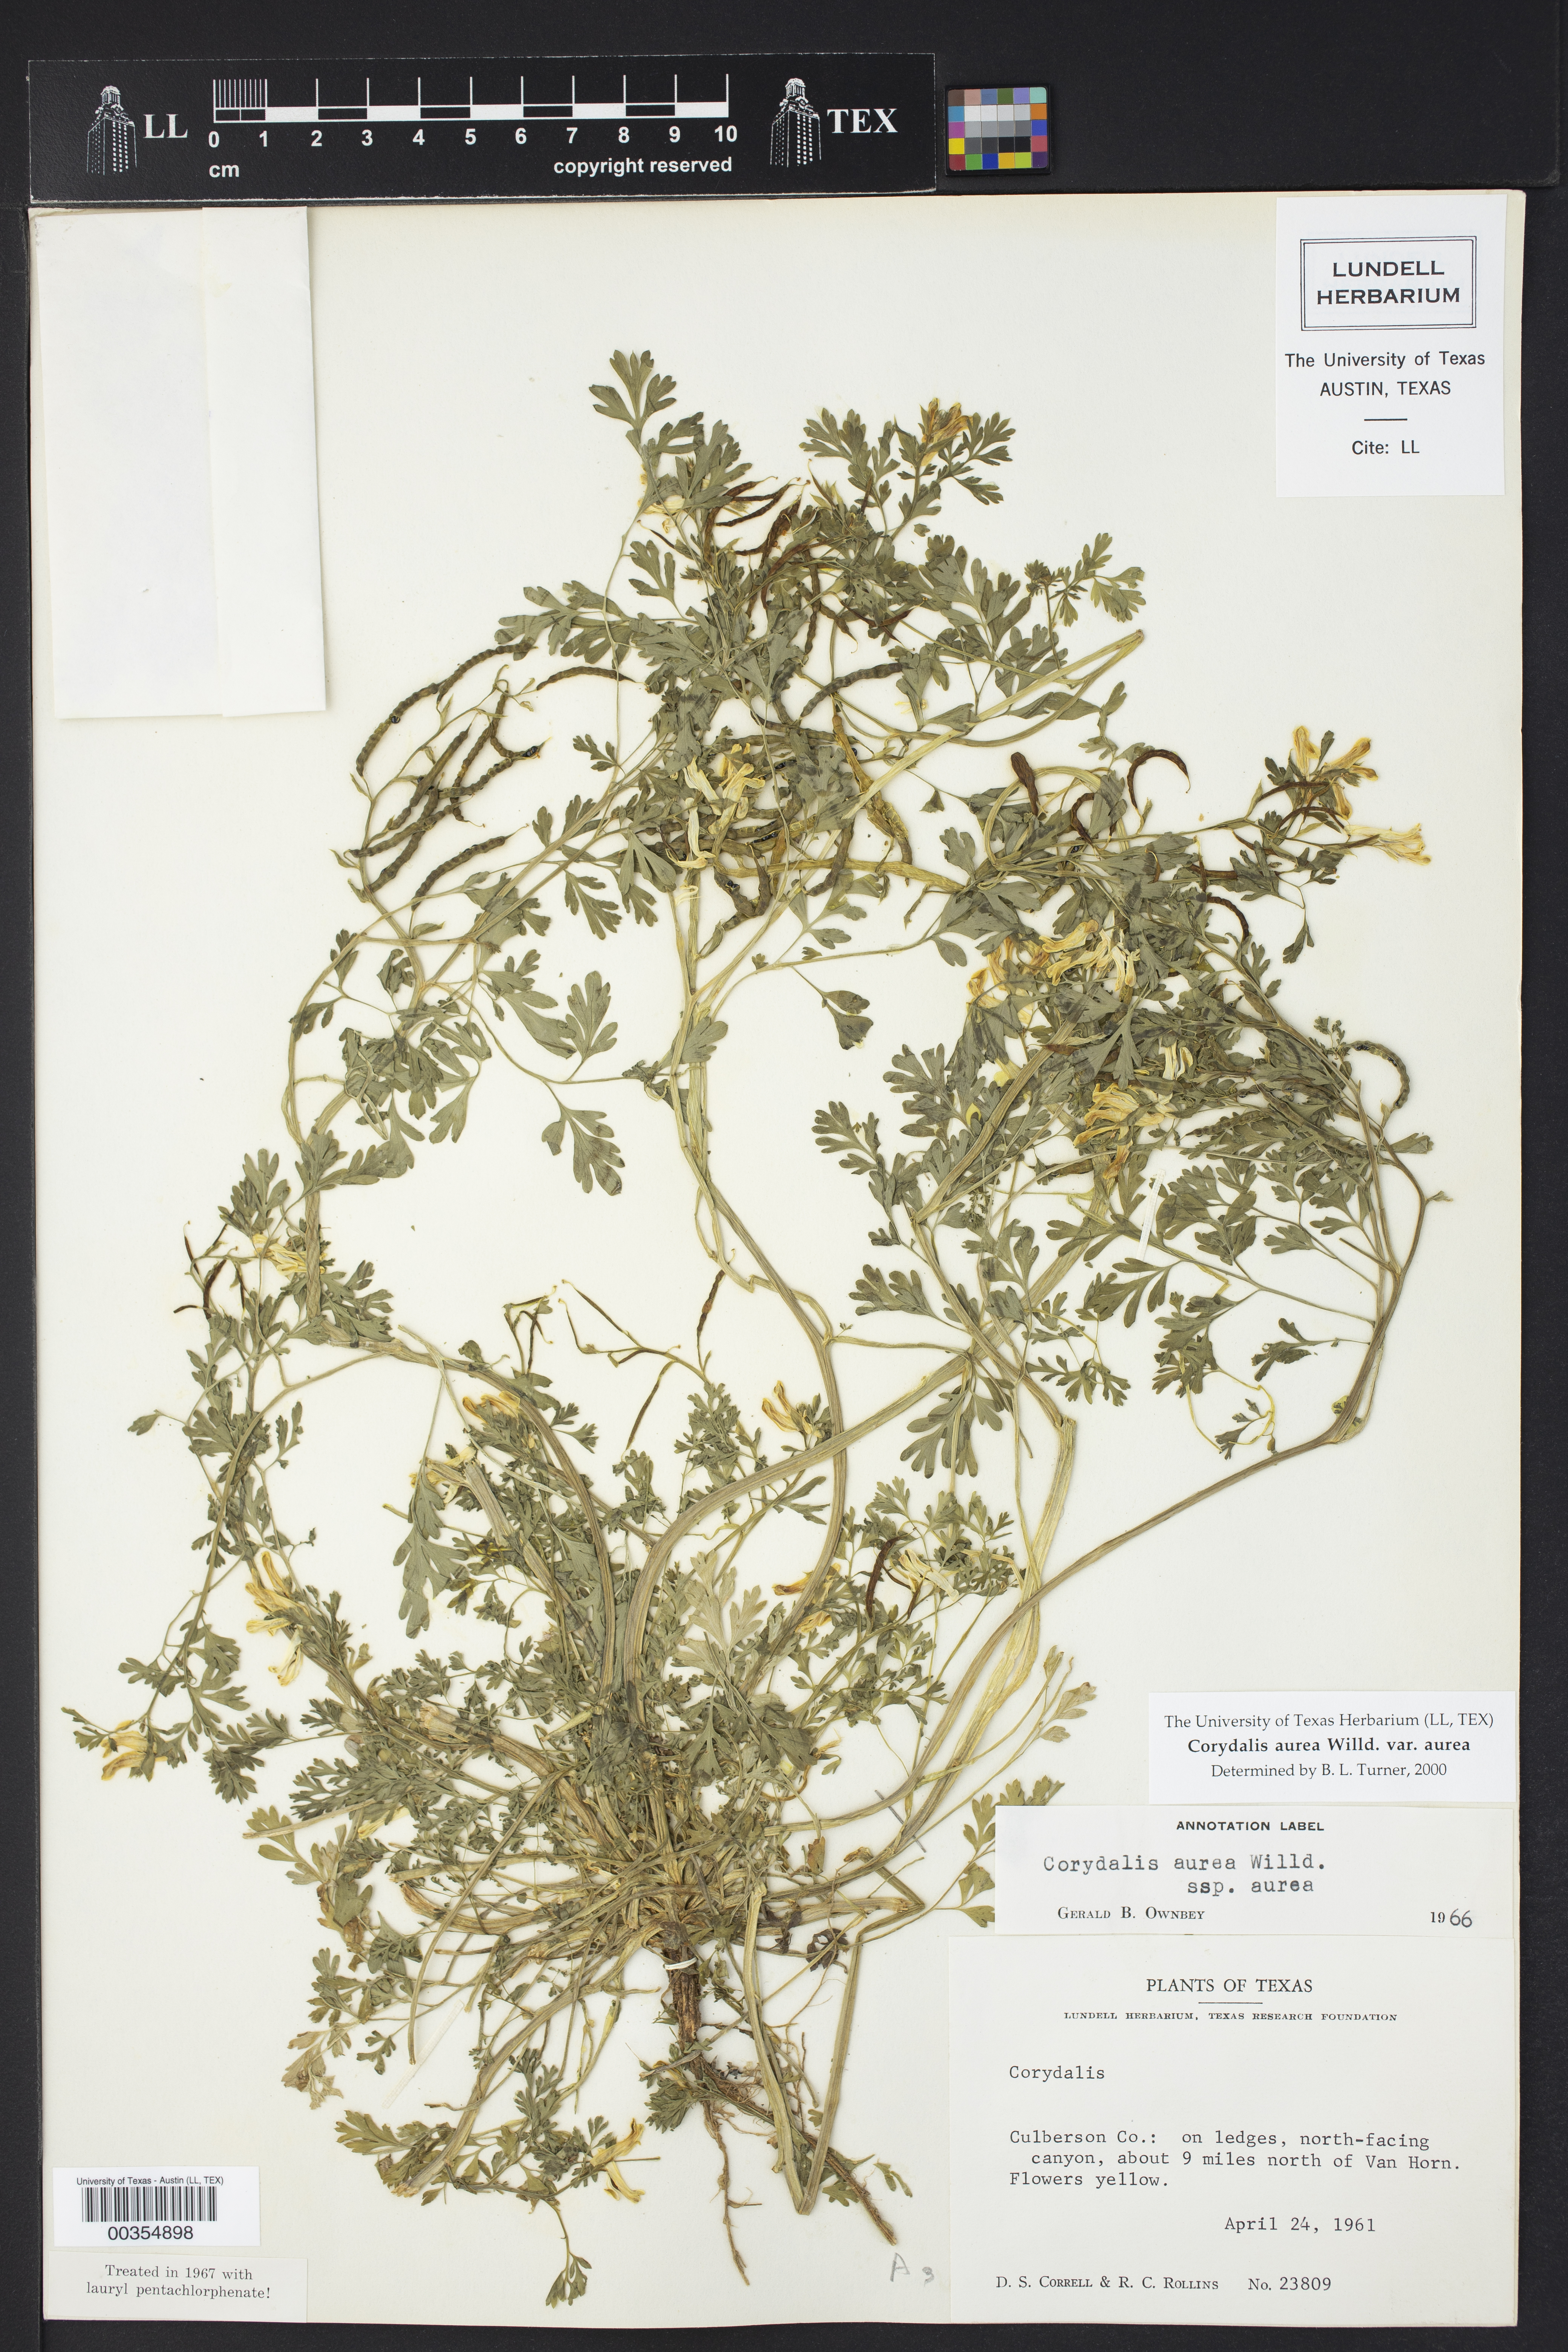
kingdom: Plantae
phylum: Tracheophyta
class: Magnoliopsida
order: Ranunculales
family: Papaveraceae
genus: Corydalis
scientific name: Corydalis aurea
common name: Golden corydalis
